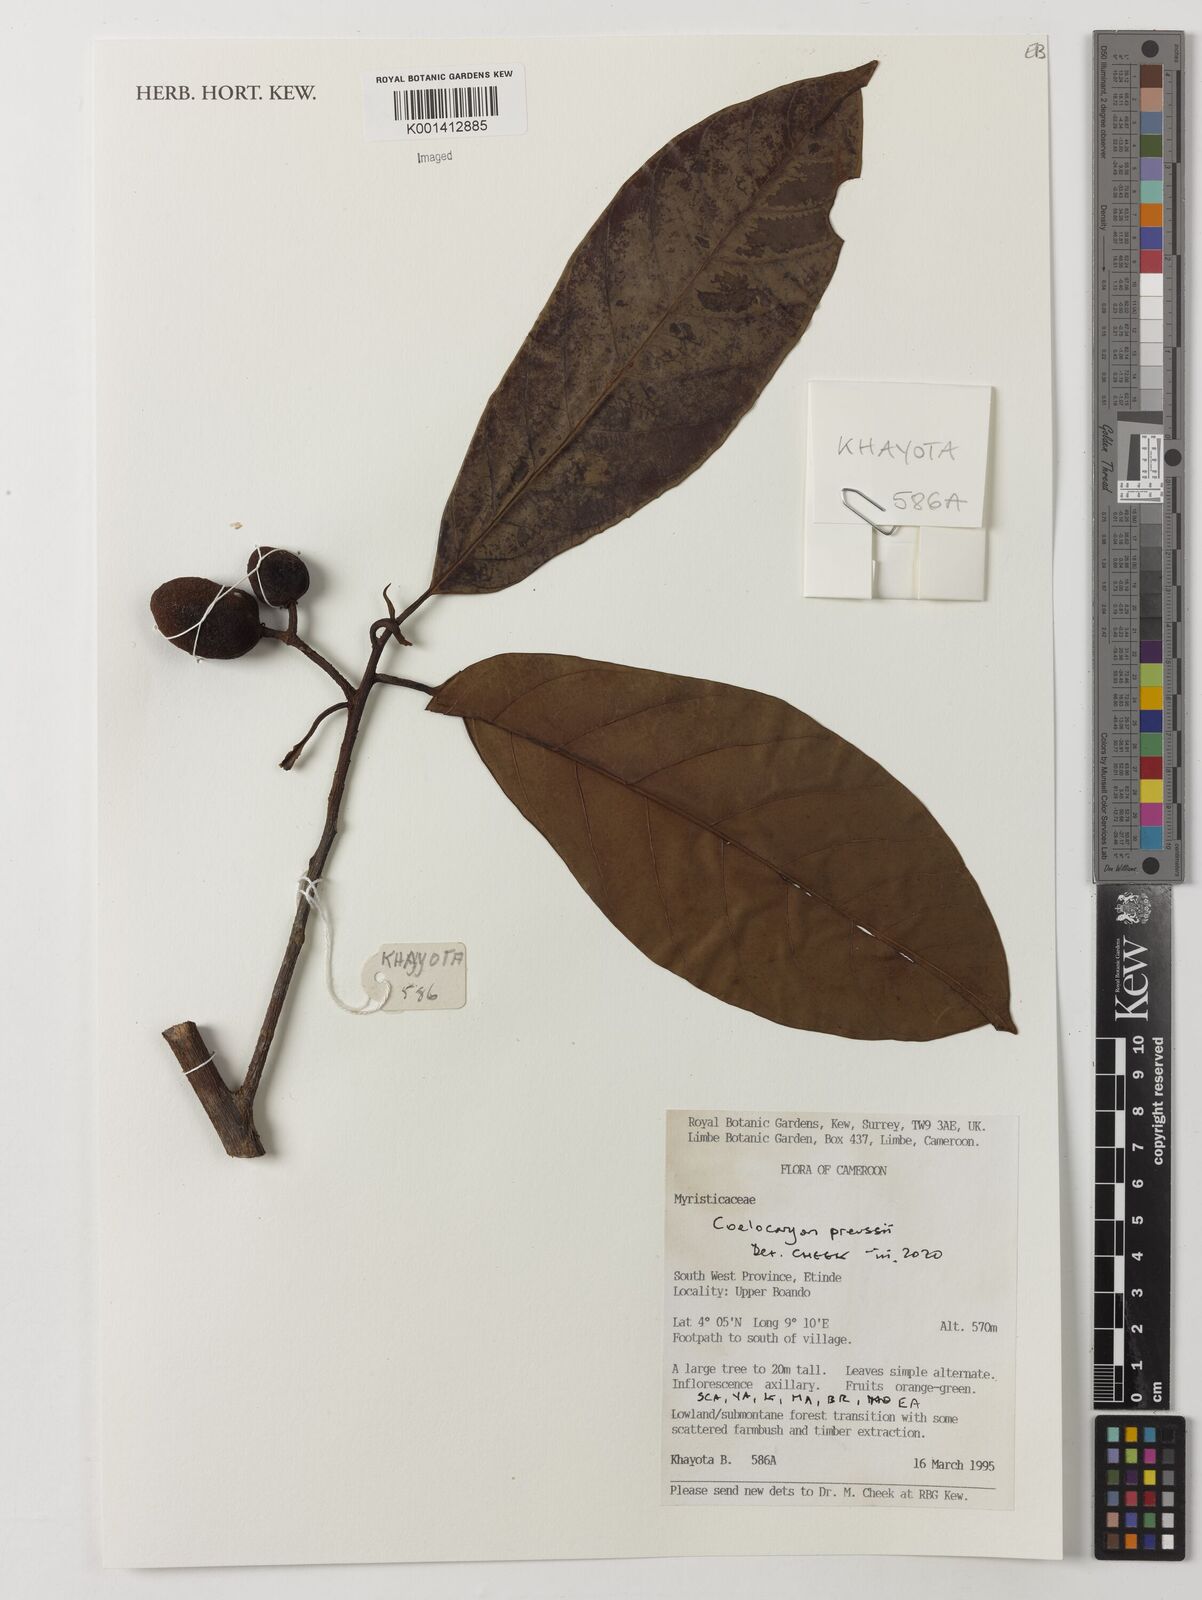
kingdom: Plantae
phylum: Tracheophyta
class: Magnoliopsida
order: Magnoliales
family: Myristicaceae
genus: Coelocaryon
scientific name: Coelocaryon preussii
